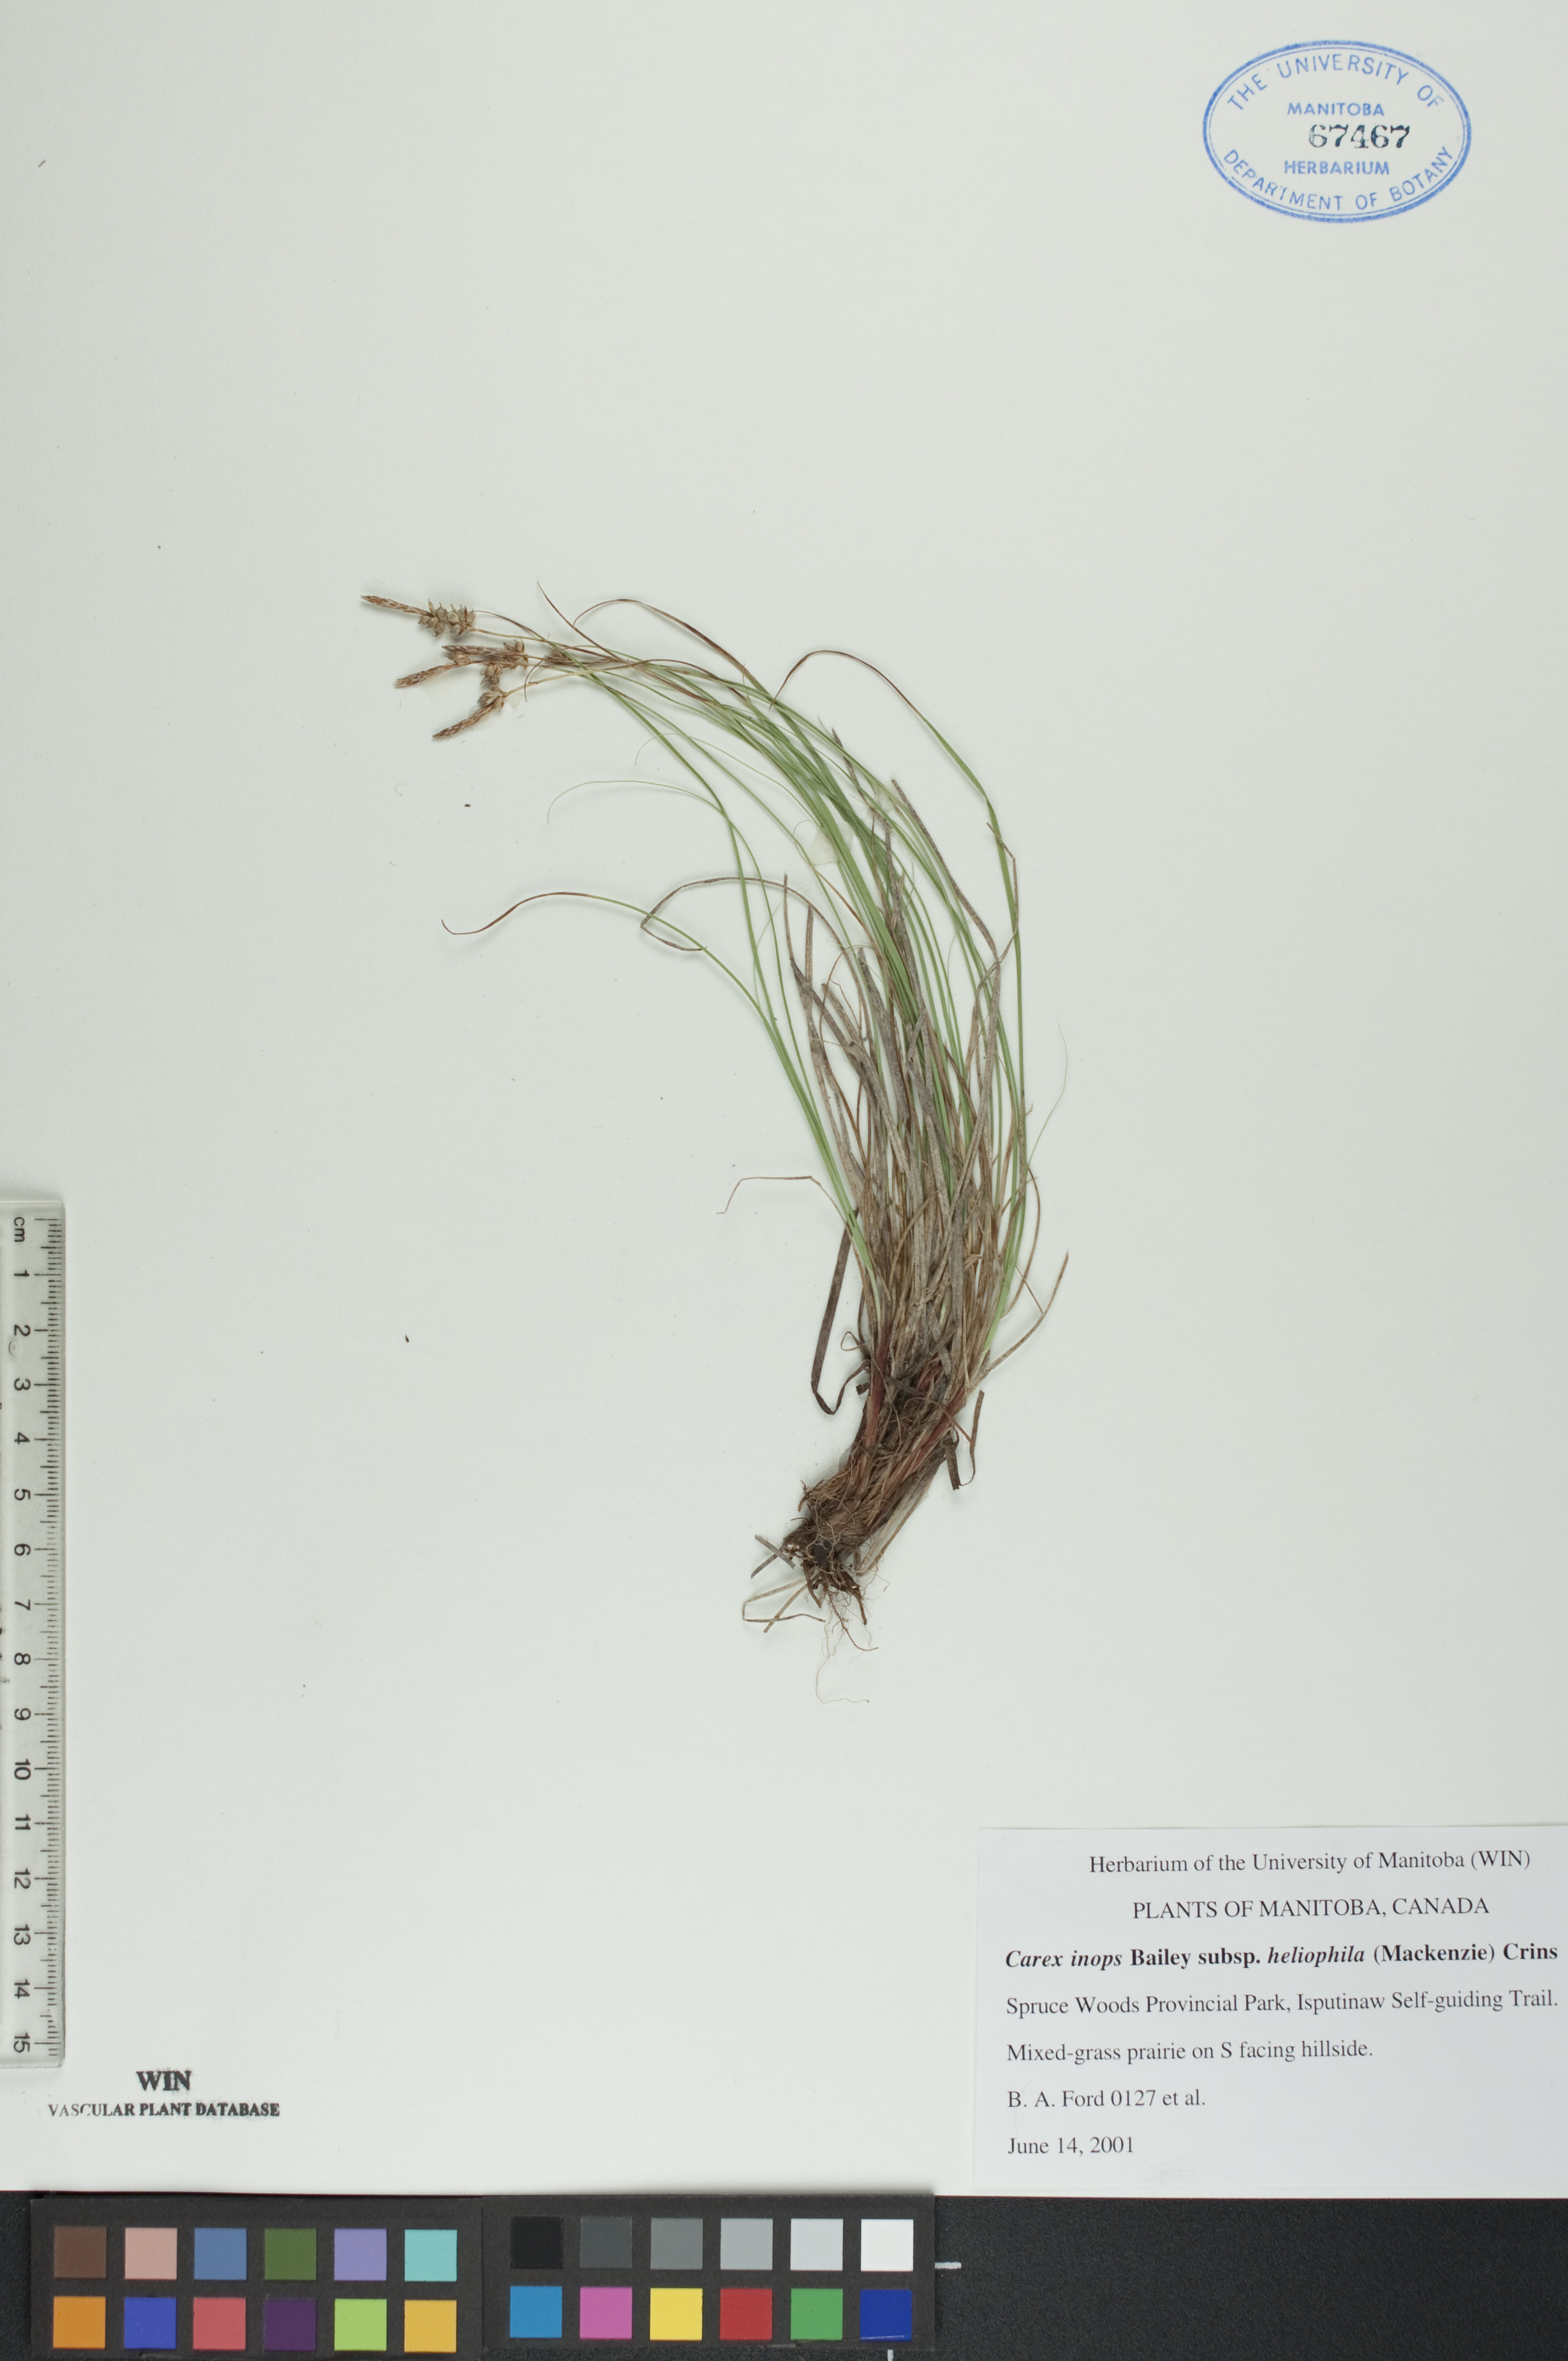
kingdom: Plantae
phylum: Tracheophyta
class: Liliopsida
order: Poales
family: Cyperaceae
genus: Carex
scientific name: Carex inops
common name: Long-stolon sedge
